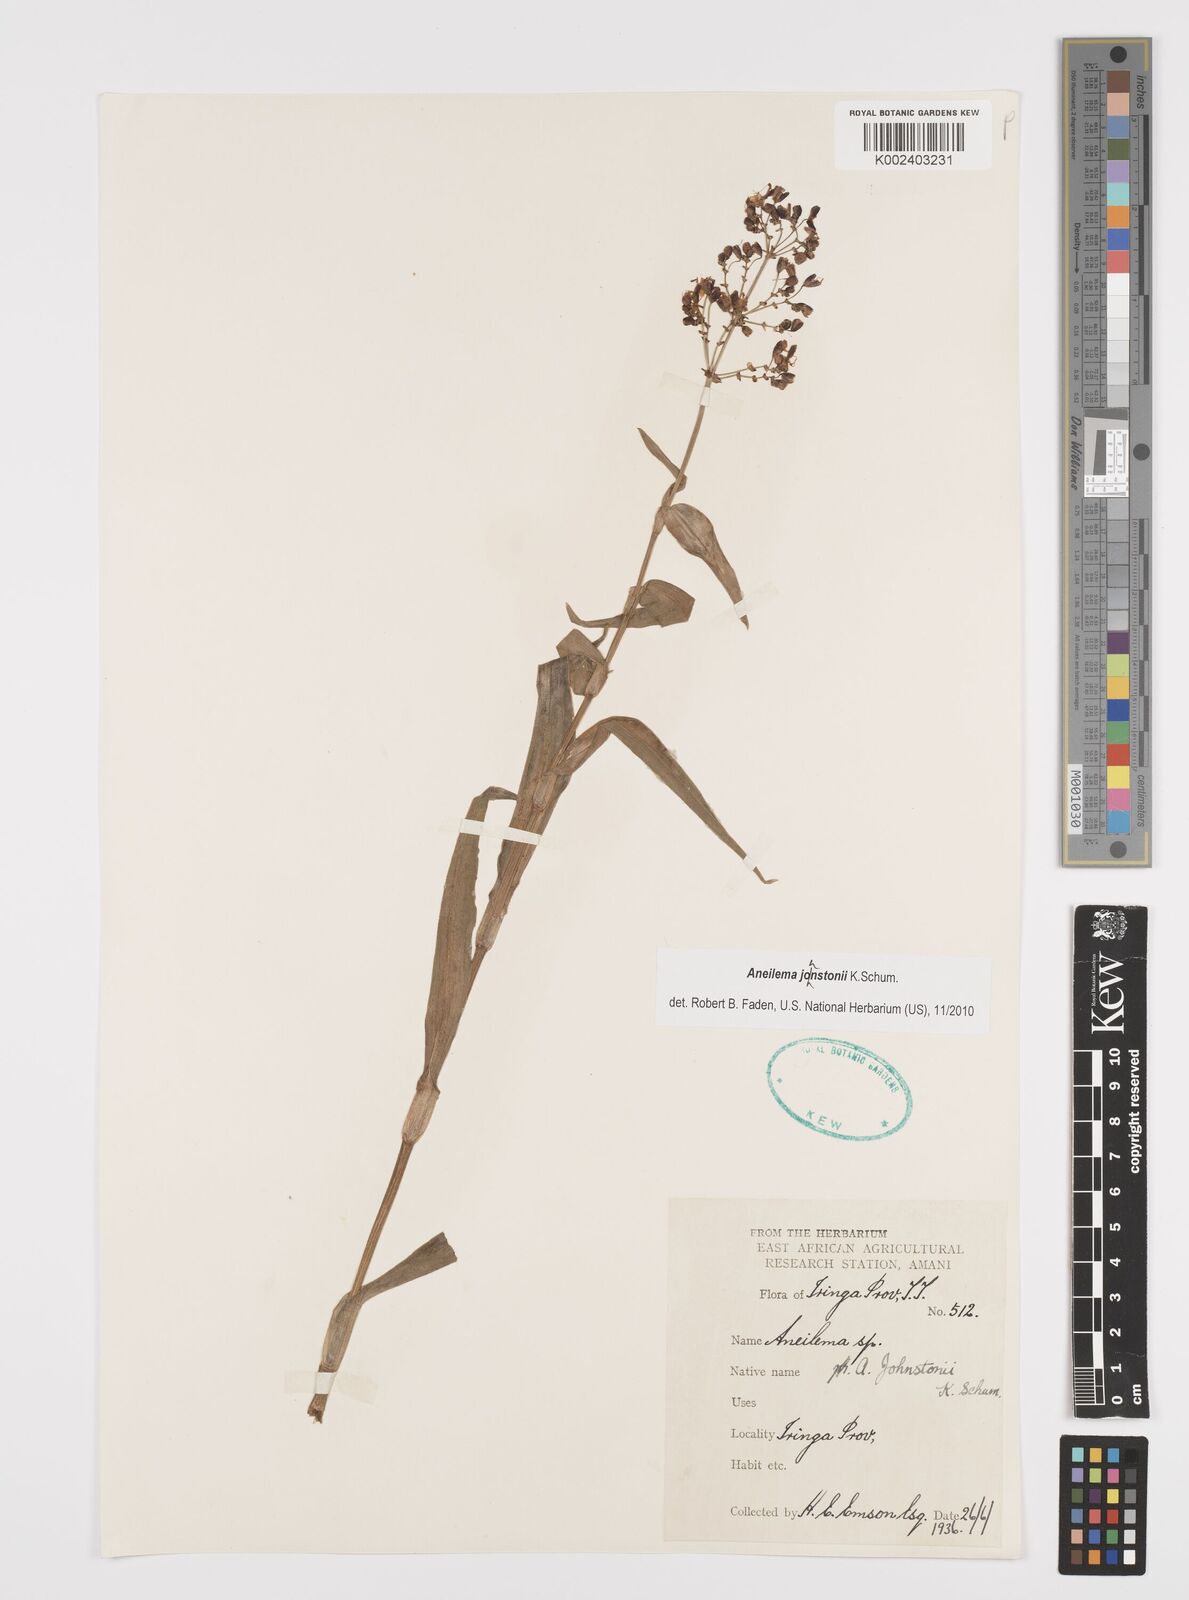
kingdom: Plantae
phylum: Tracheophyta
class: Liliopsida
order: Commelinales
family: Commelinaceae
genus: Aneilema
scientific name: Aneilema johnstonii
